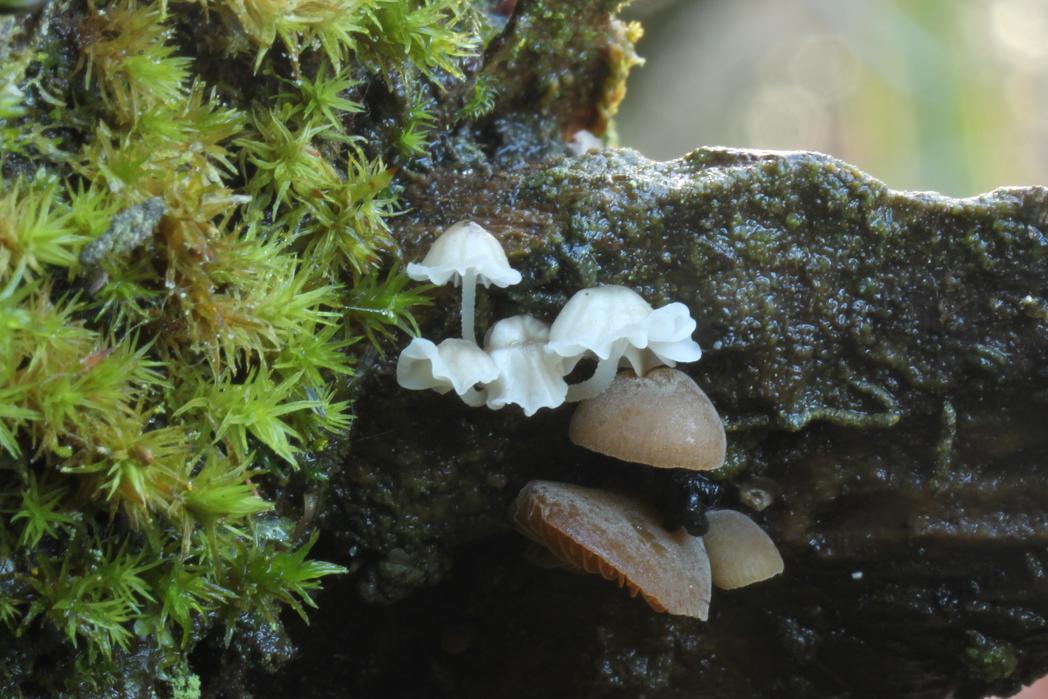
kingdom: Fungi
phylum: Basidiomycota
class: Agaricomycetes
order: Agaricales
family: Porotheleaceae
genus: Phloeomana
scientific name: Phloeomana hiemalis
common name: sen huesvamp
